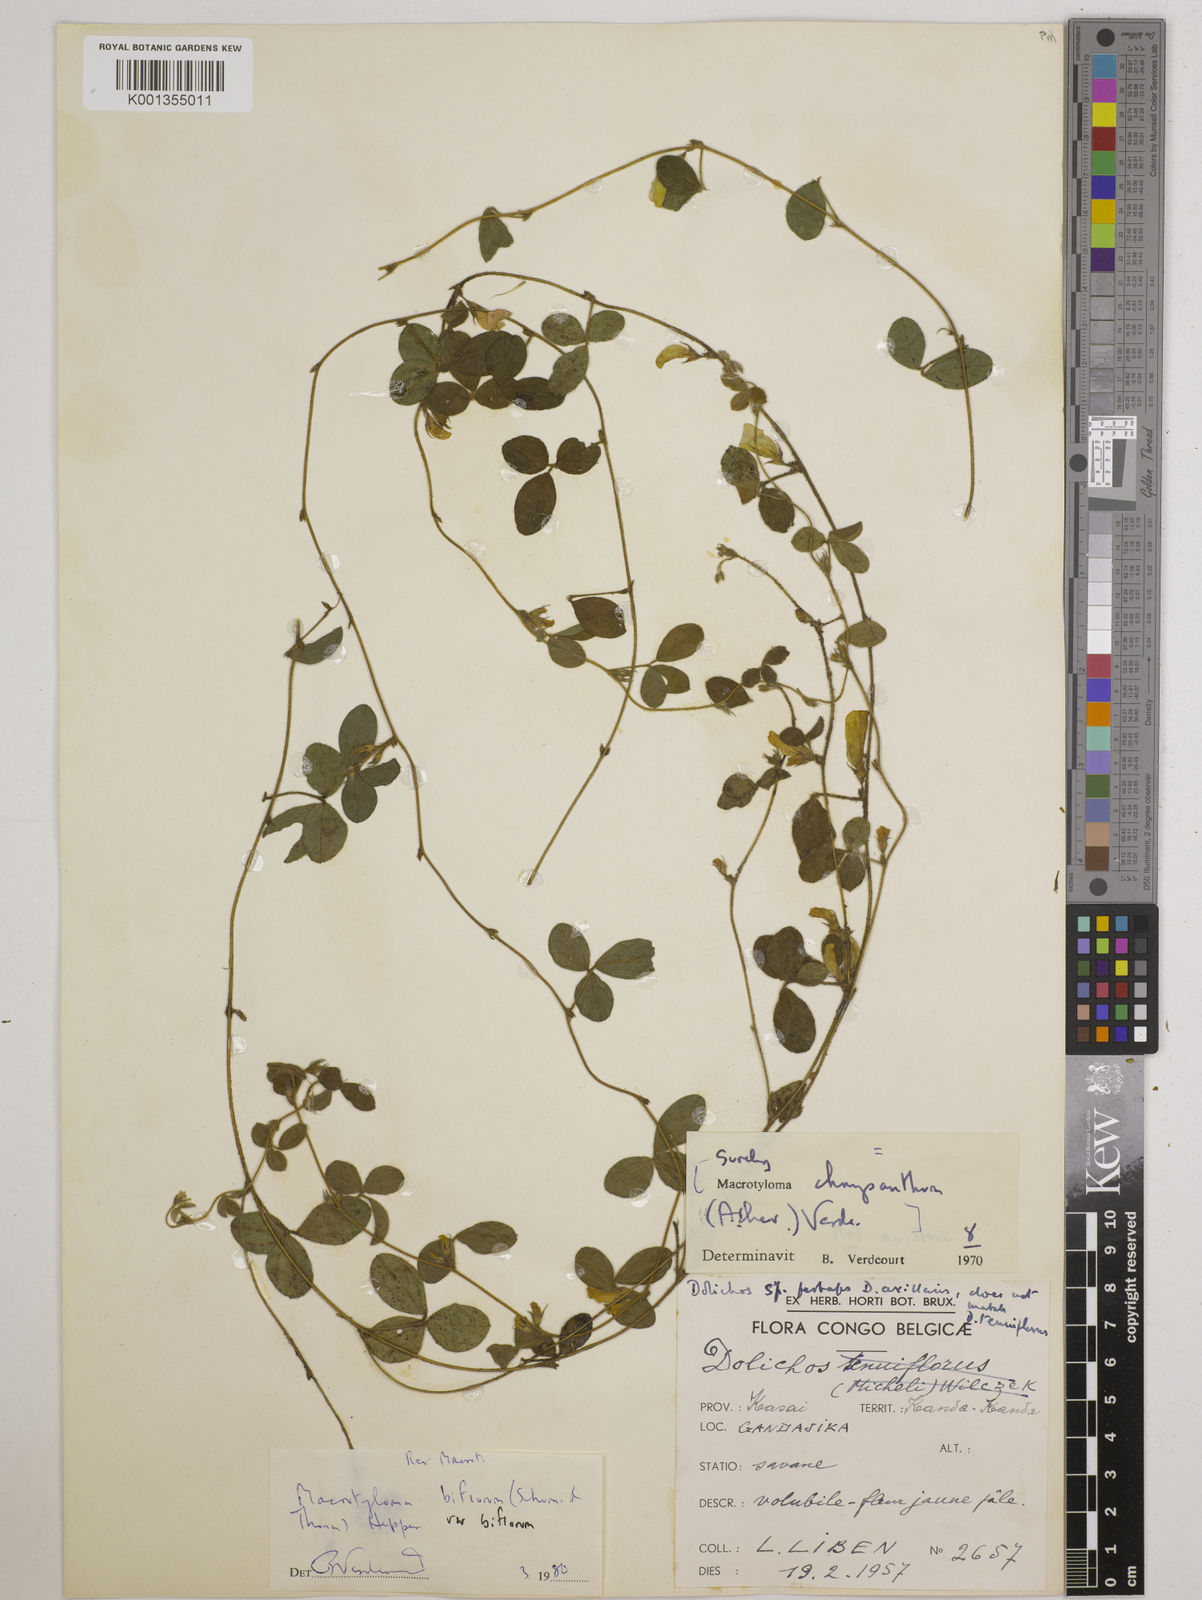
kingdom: Plantae
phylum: Tracheophyta
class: Magnoliopsida
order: Fabales
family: Fabaceae
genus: Macrotyloma
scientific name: Macrotyloma biflorum
